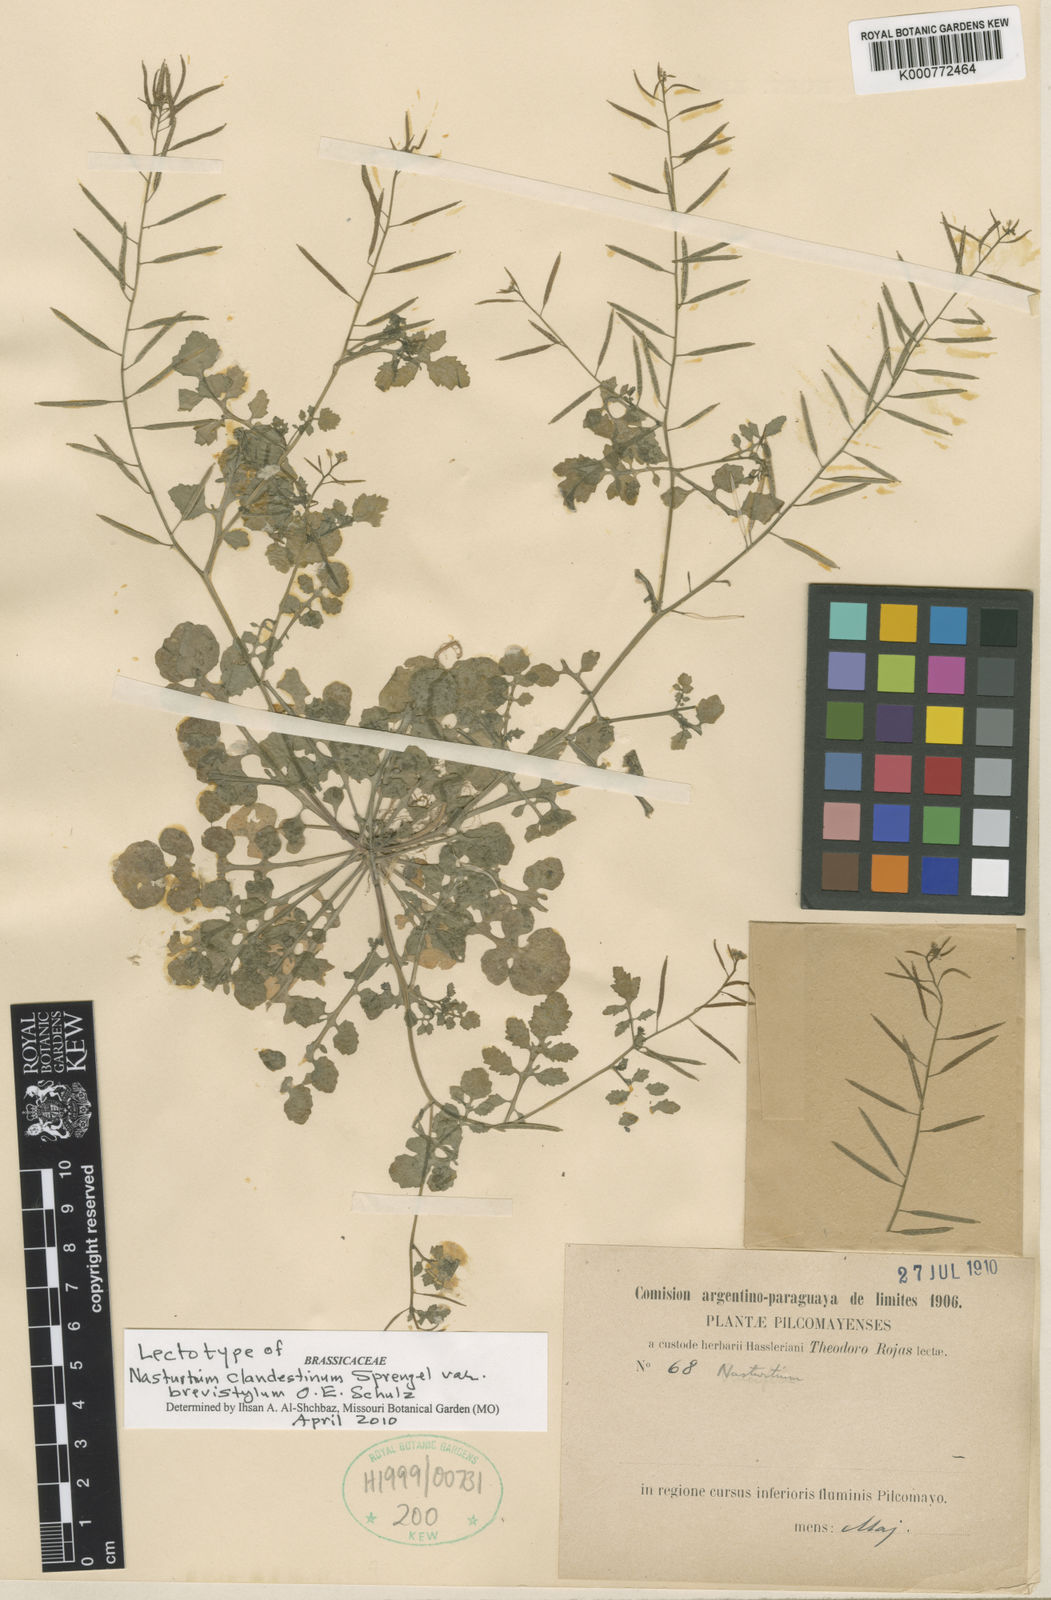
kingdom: Plantae
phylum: Tracheophyta
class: Magnoliopsida
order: Brassicales
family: Brassicaceae
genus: Rorippa
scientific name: Rorippa clandestina
